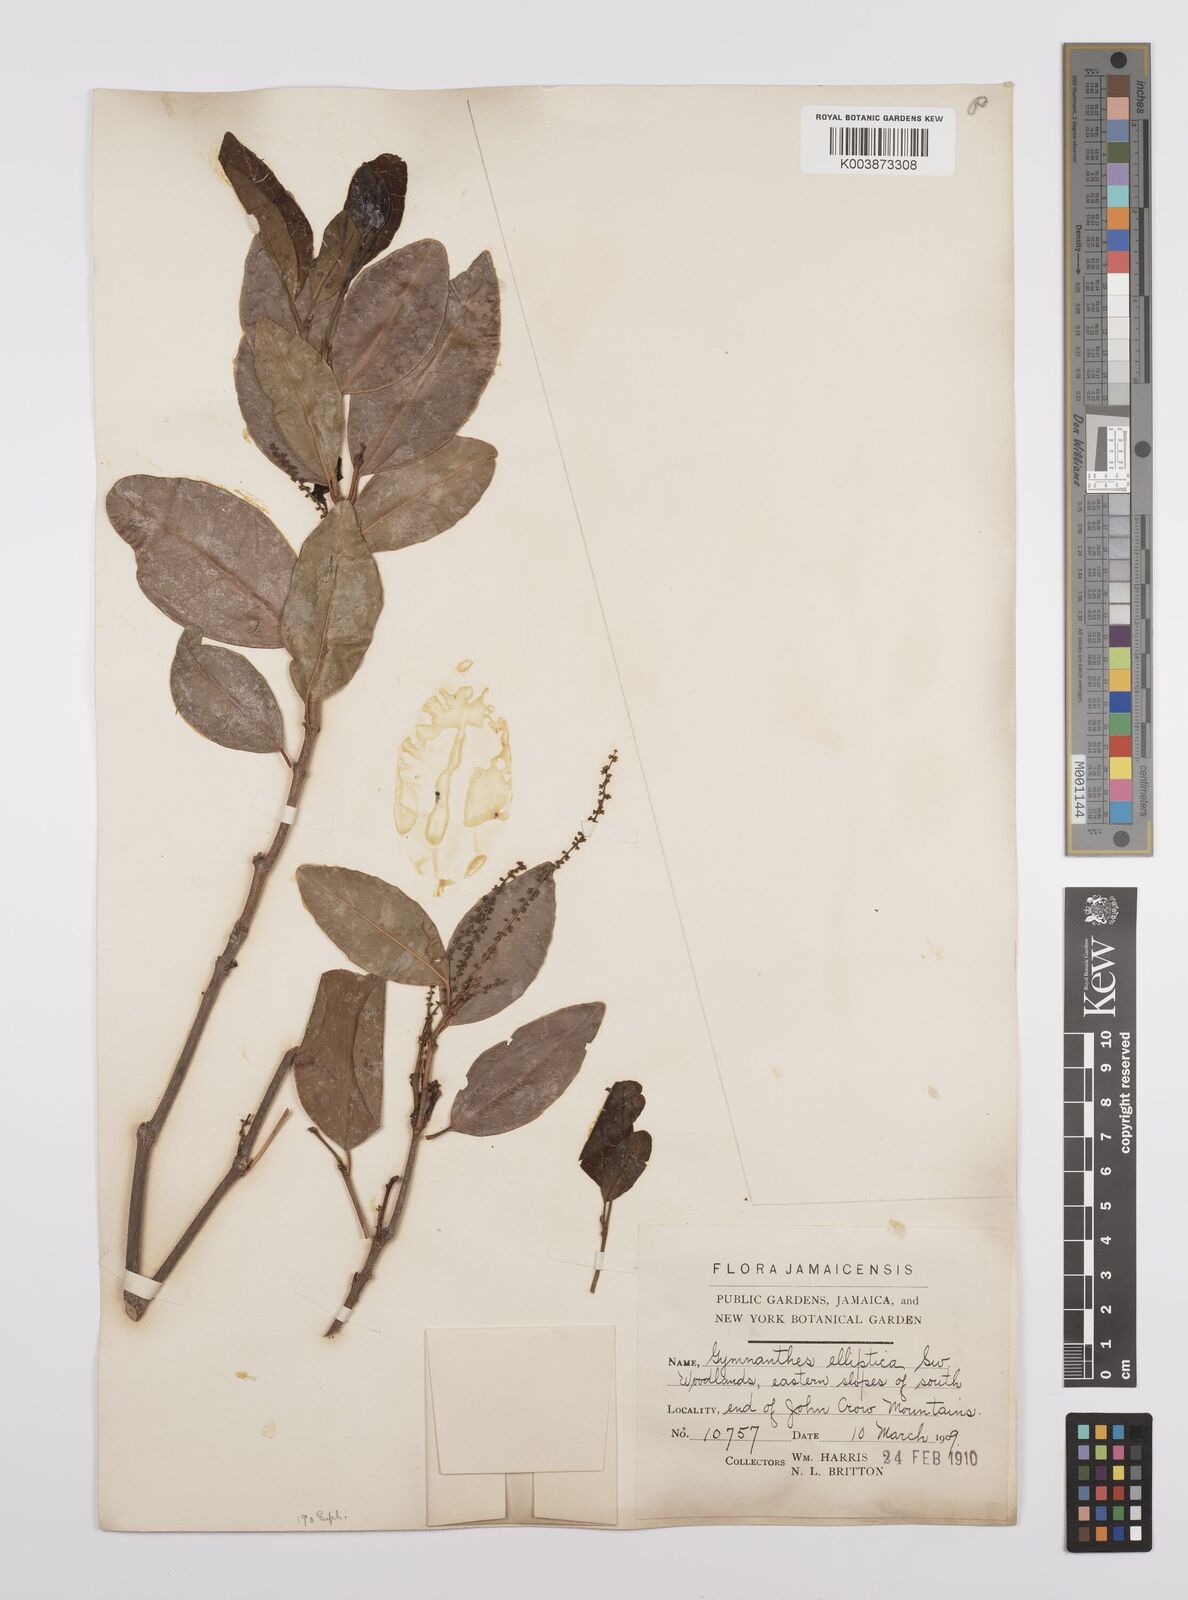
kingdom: Plantae
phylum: Tracheophyta
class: Magnoliopsida
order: Malpighiales
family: Euphorbiaceae
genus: Dendrocousinsia
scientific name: Dendrocousinsia elliptica
